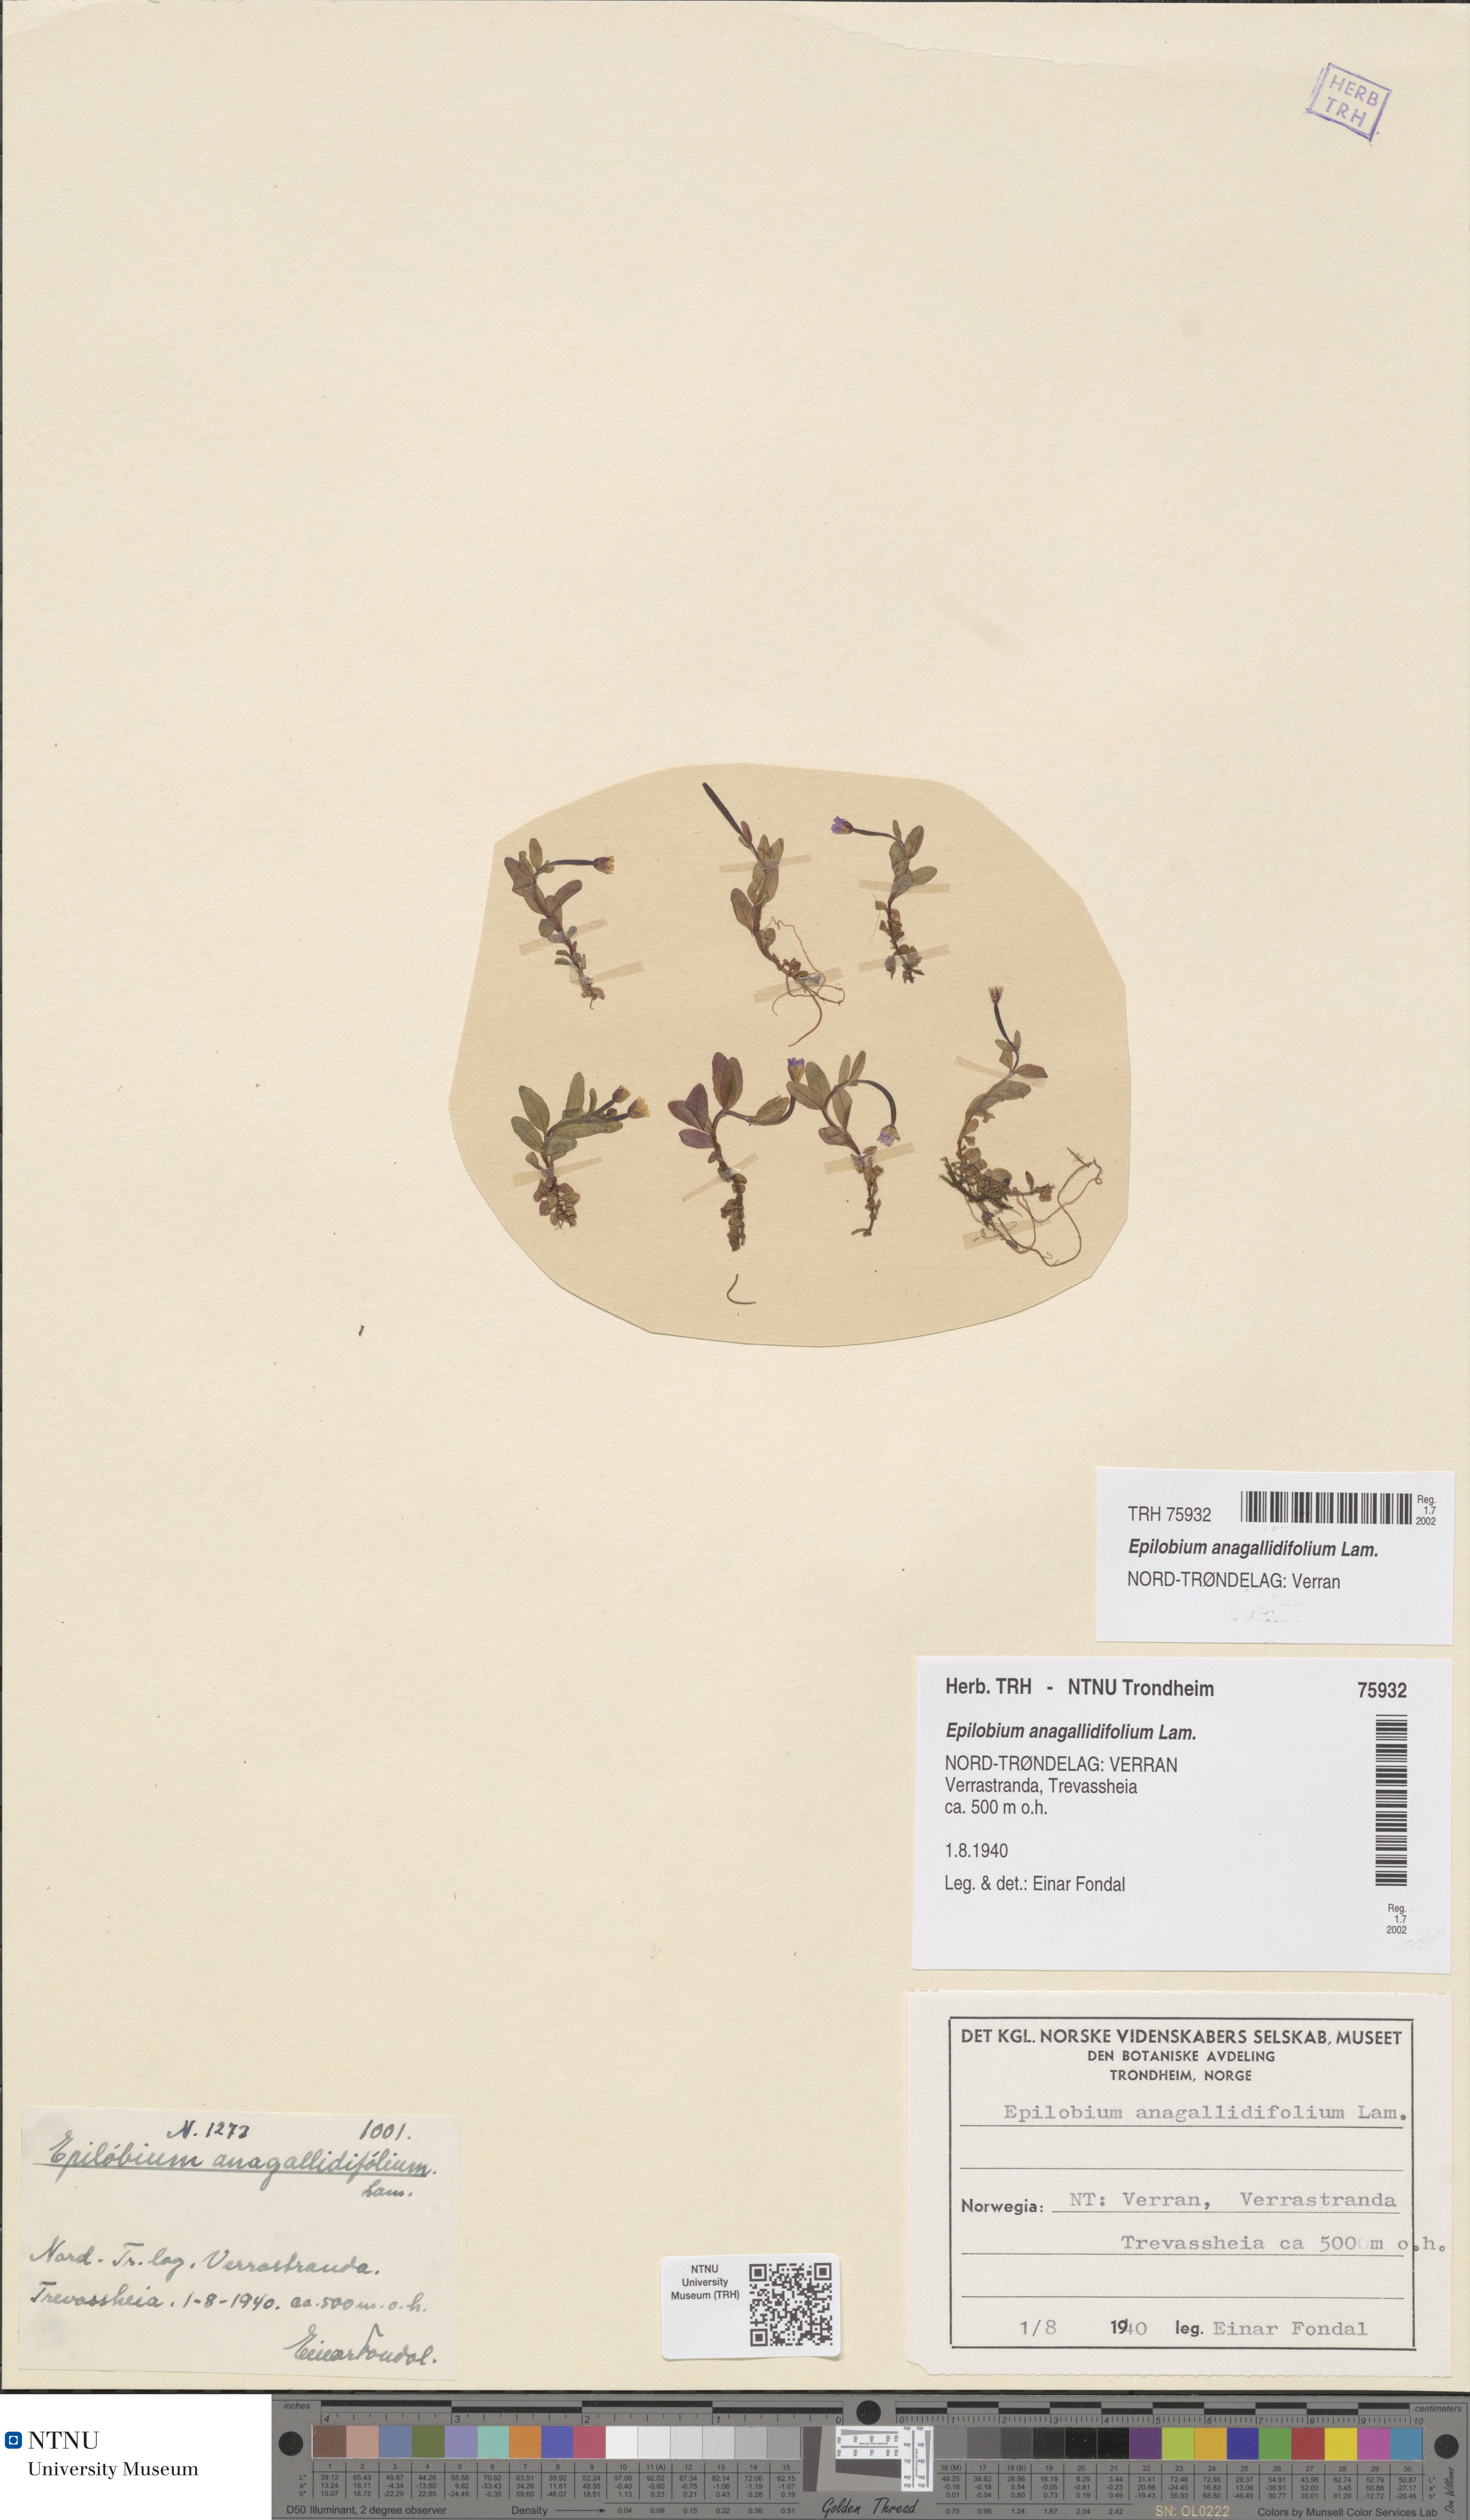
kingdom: Plantae
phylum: Tracheophyta
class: Magnoliopsida
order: Myrtales
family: Onagraceae
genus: Epilobium
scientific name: Epilobium anagallidifolium
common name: Alpine willowherb
